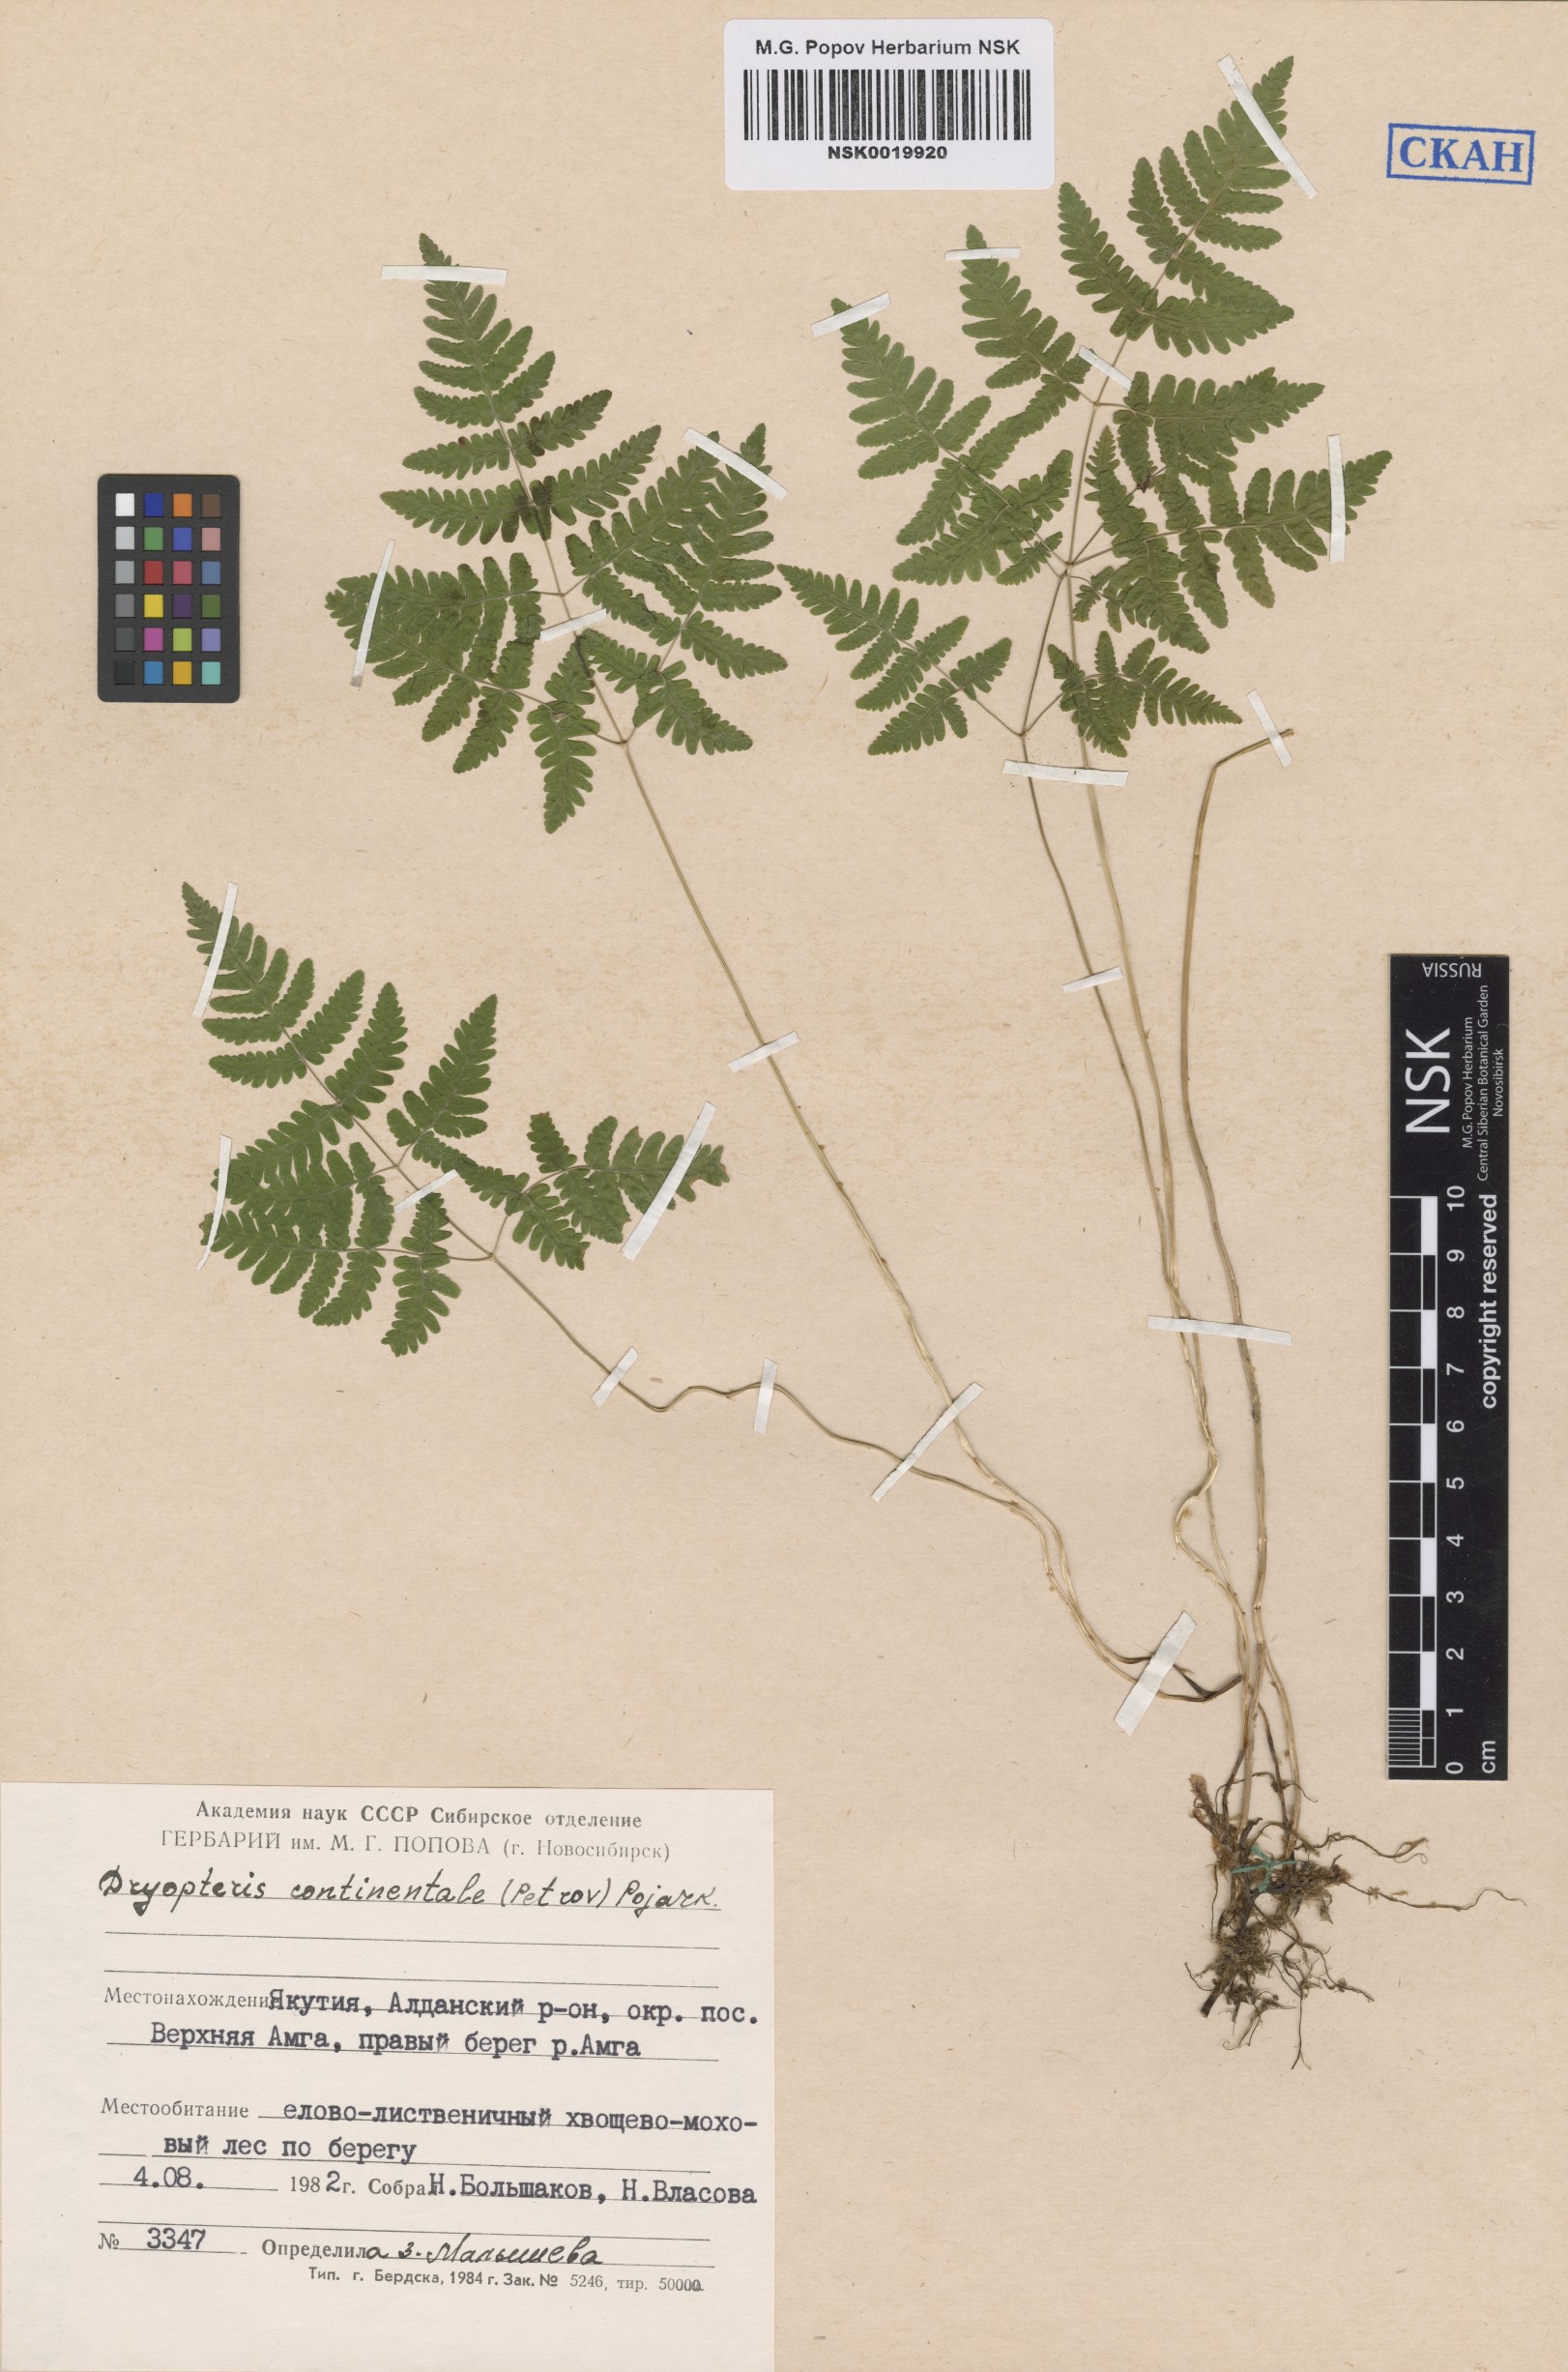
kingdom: Plantae
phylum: Tracheophyta
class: Polypodiopsida
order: Polypodiales
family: Cystopteridaceae
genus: Gymnocarpium
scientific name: Gymnocarpium continentale
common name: Asian oak fern
